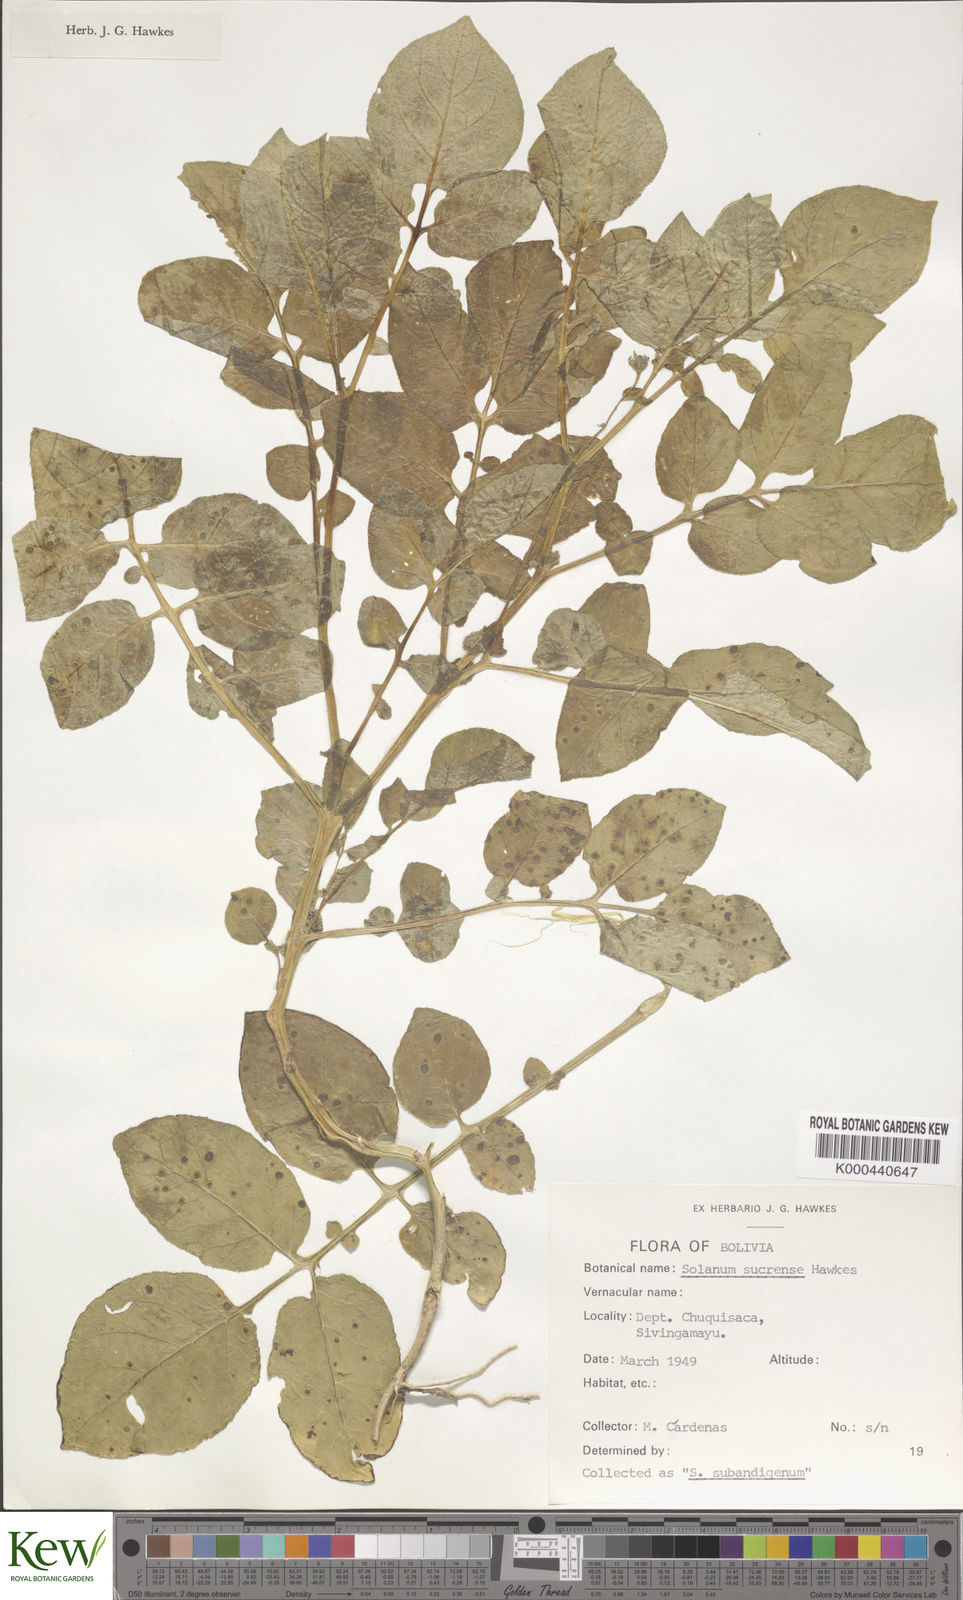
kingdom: Plantae
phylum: Tracheophyta
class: Magnoliopsida
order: Solanales
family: Solanaceae
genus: Solanum
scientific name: Solanum brevicaule
